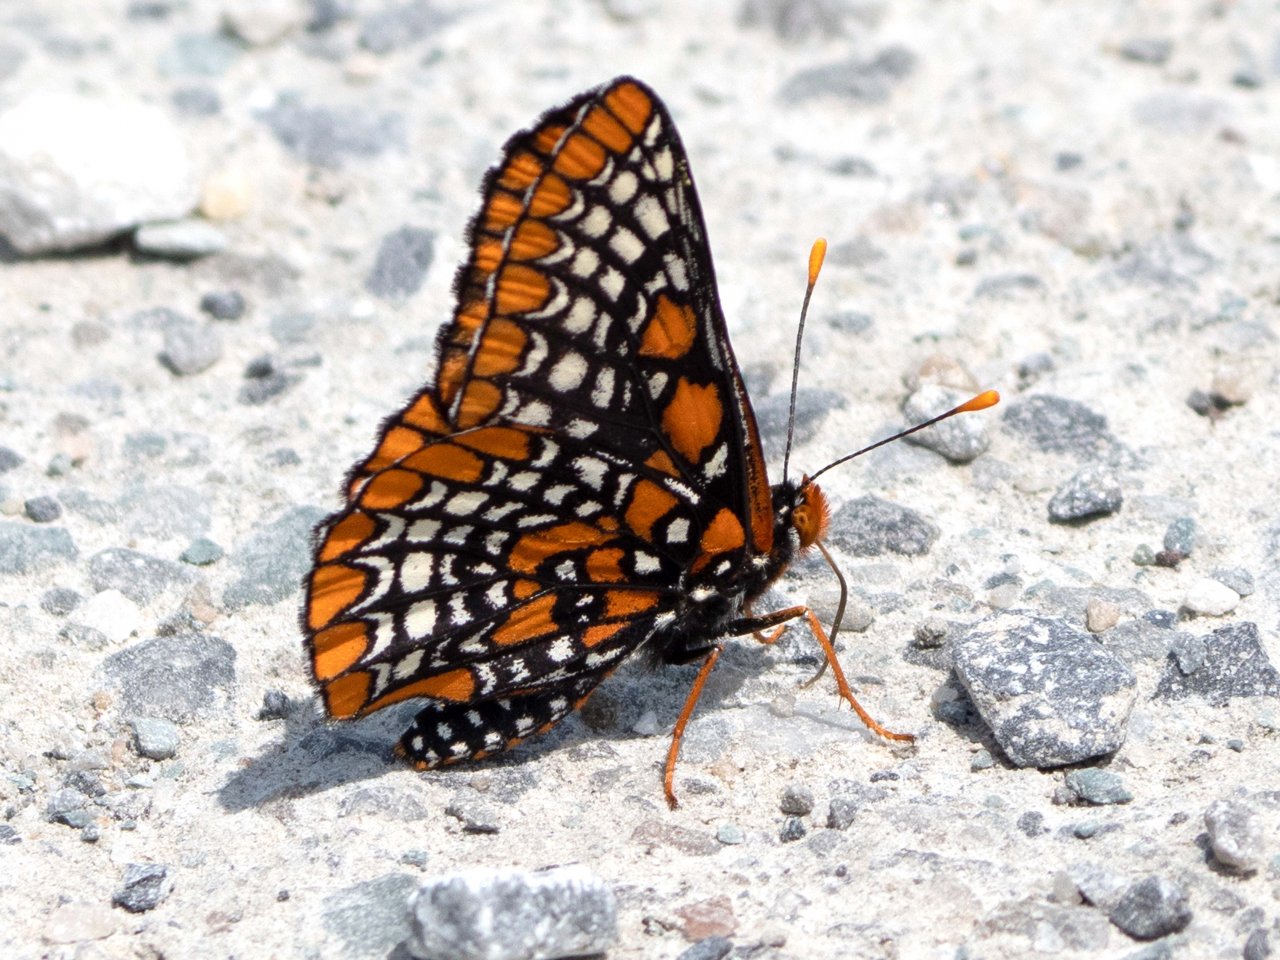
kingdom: Animalia
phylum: Arthropoda
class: Insecta
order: Lepidoptera
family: Nymphalidae
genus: Euphydryas
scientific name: Euphydryas phaeton
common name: Baltimore Checkerspot
